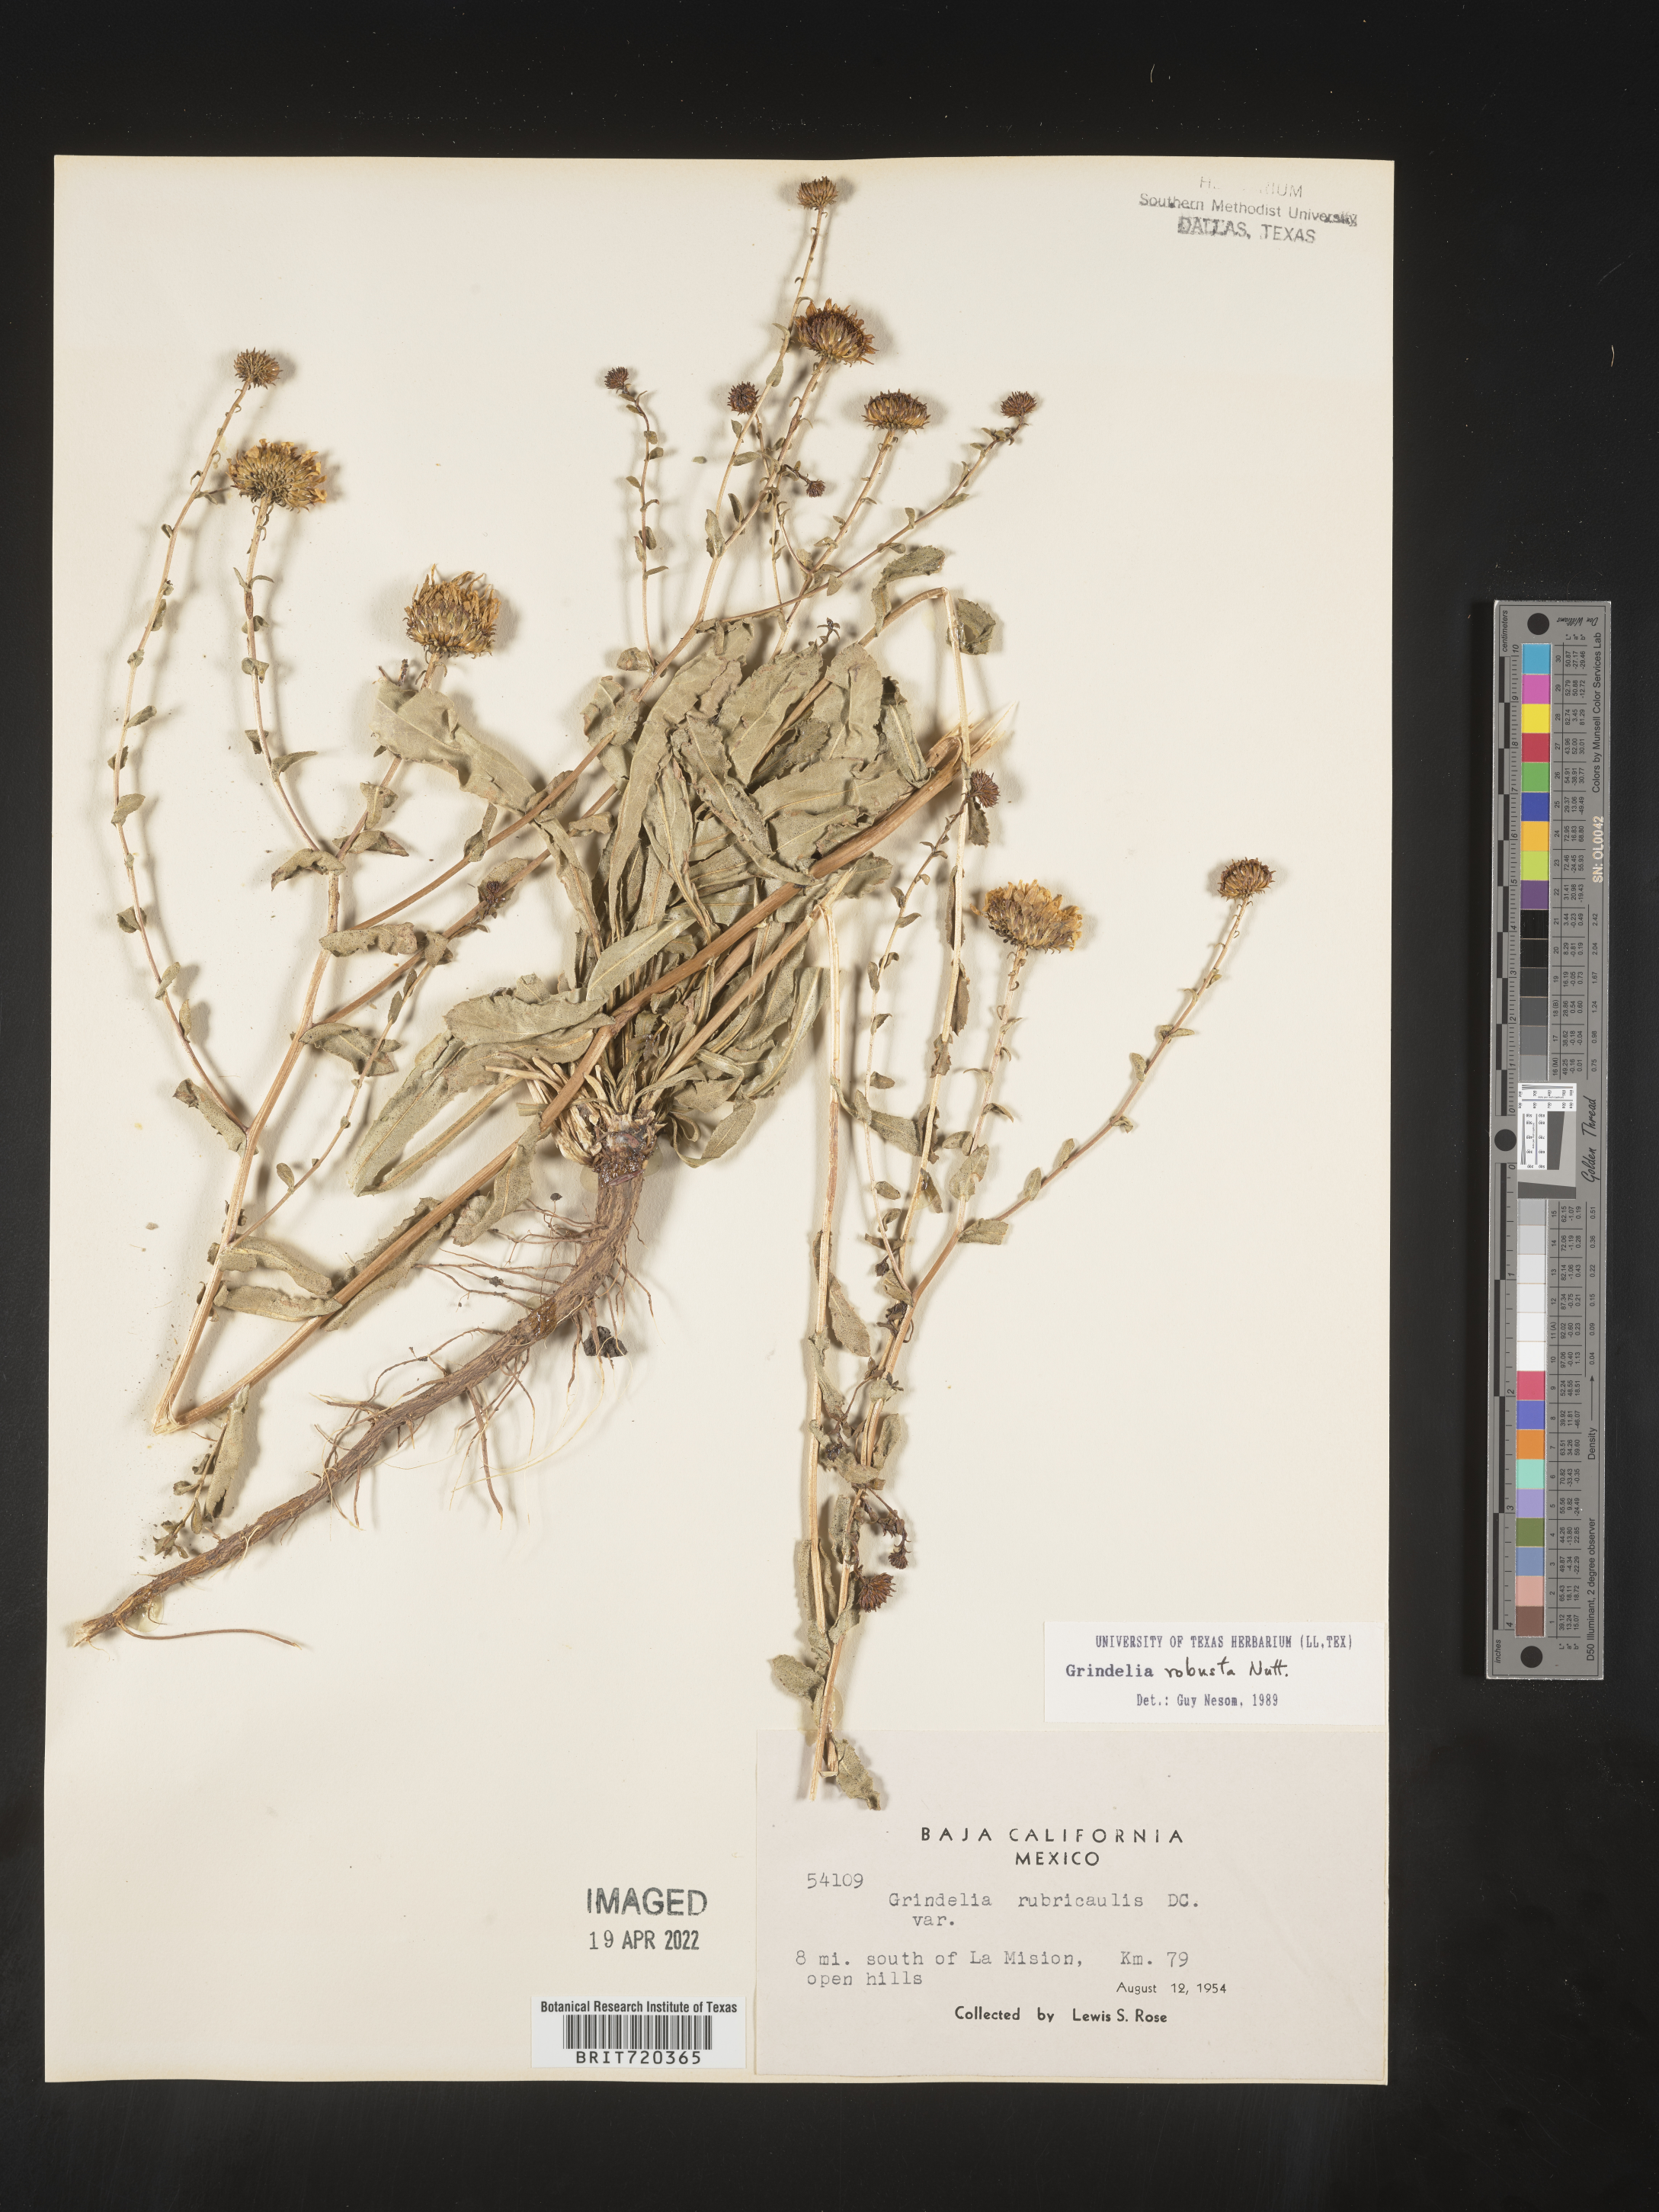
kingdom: Plantae
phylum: Tracheophyta
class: Magnoliopsida
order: Asterales
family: Asteraceae
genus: Grindelia
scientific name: Grindelia
